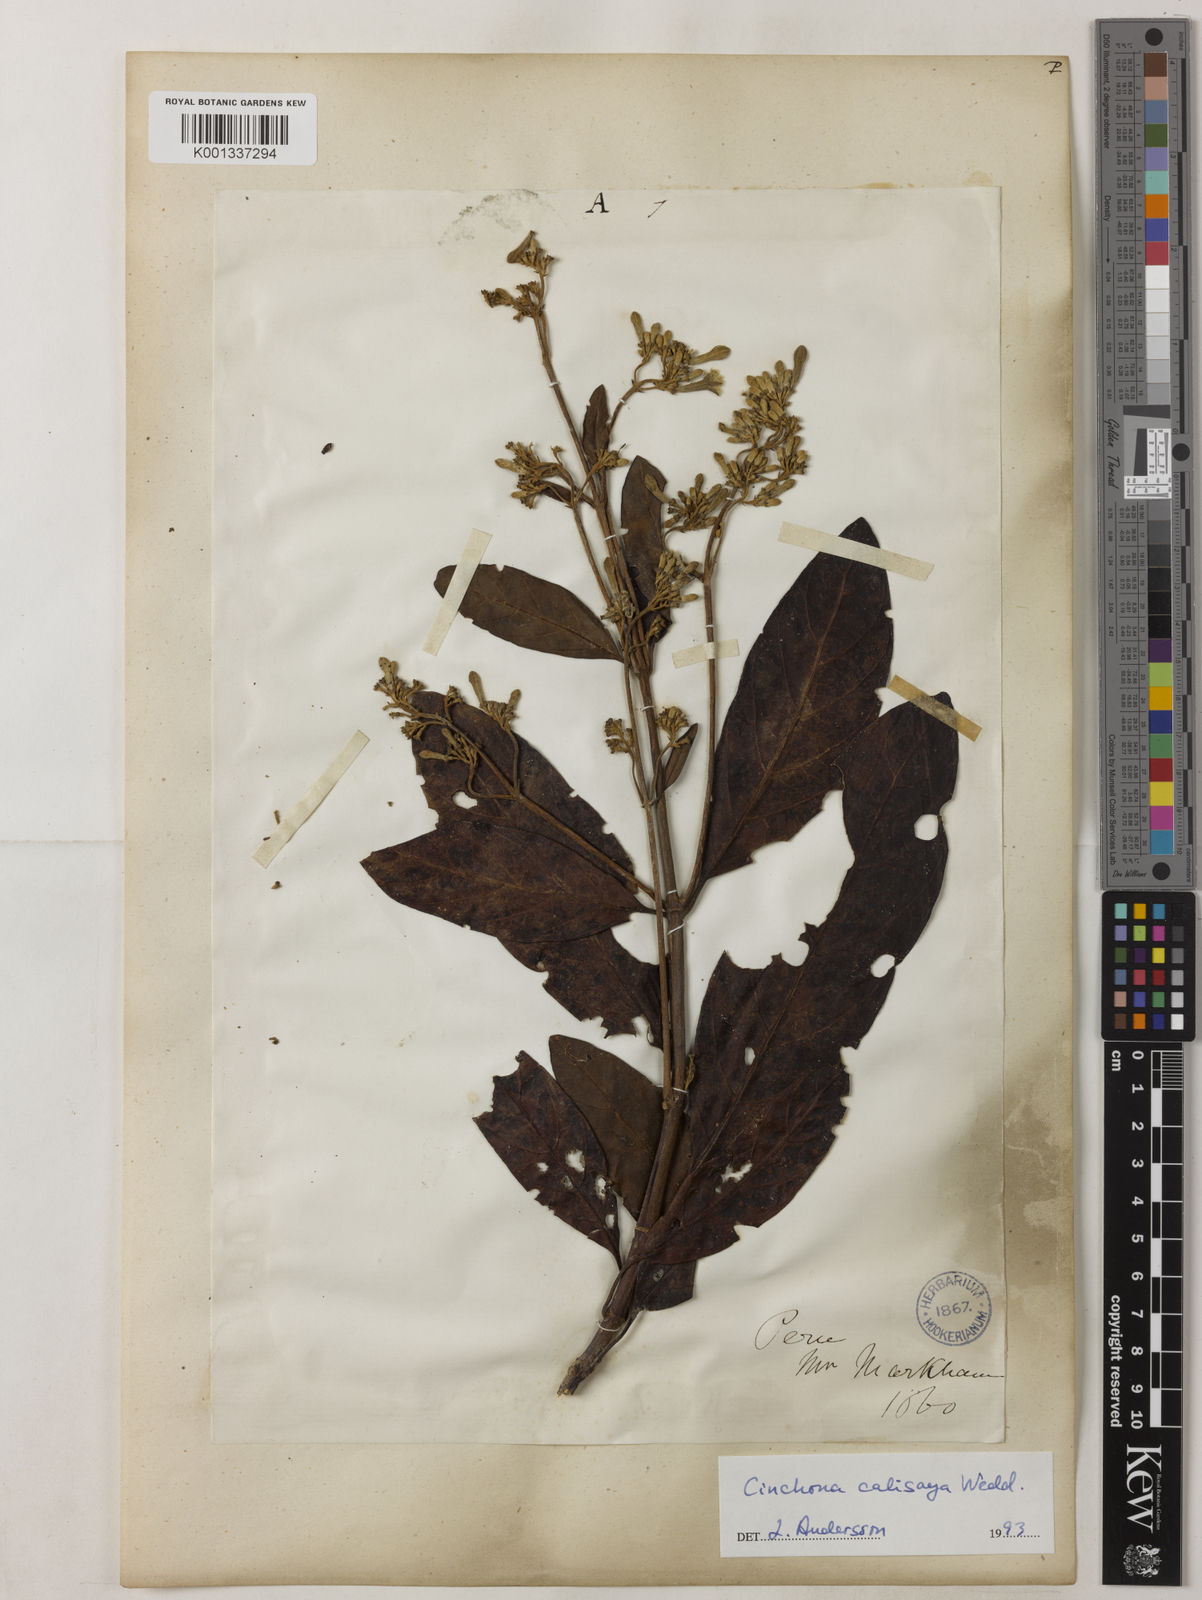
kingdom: Plantae
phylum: Tracheophyta
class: Magnoliopsida
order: Gentianales
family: Rubiaceae
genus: Cinchona
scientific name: Cinchona calisaya
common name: Ledgerbark
